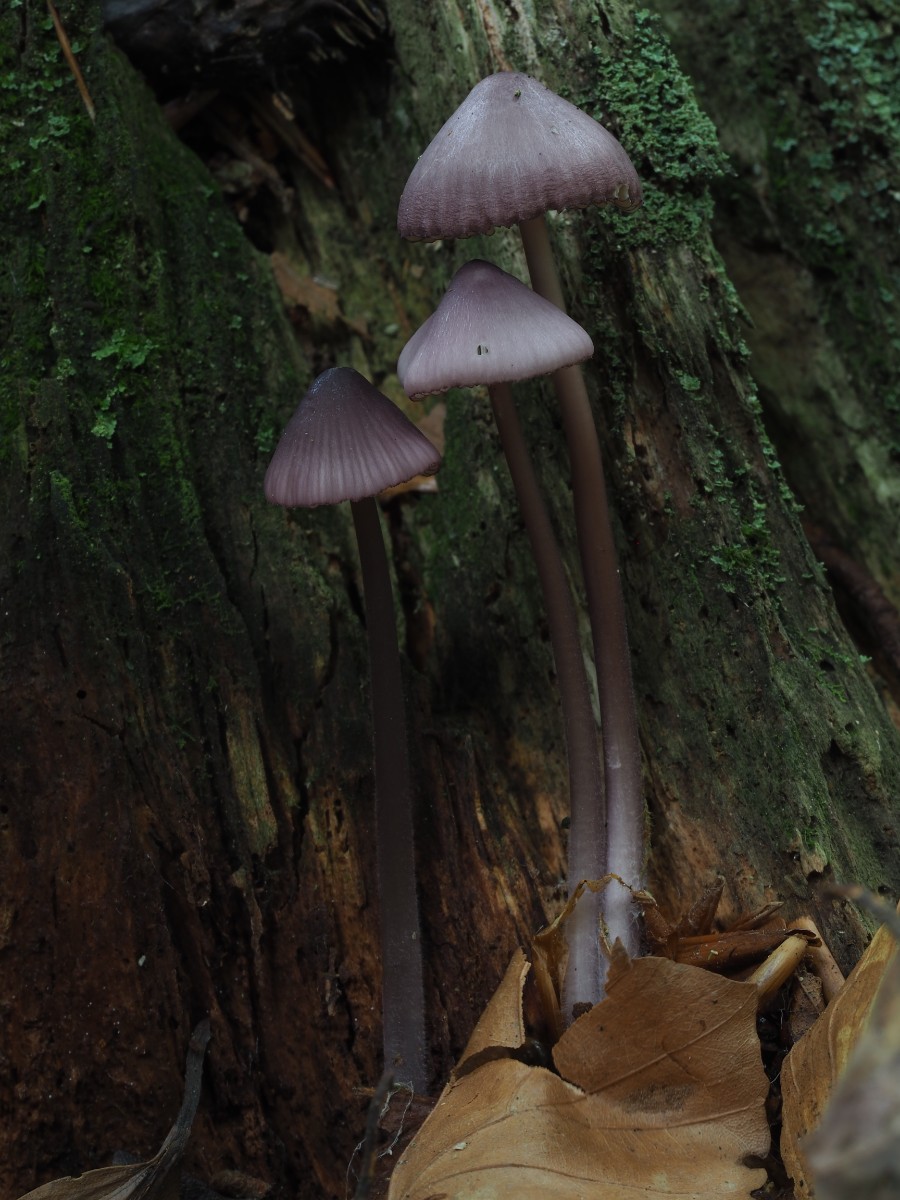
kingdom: Fungi
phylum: Basidiomycota
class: Agaricomycetes
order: Agaricales
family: Mycenaceae
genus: Mycena
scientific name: Mycena purpureofusca
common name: purpur-huesvamp
